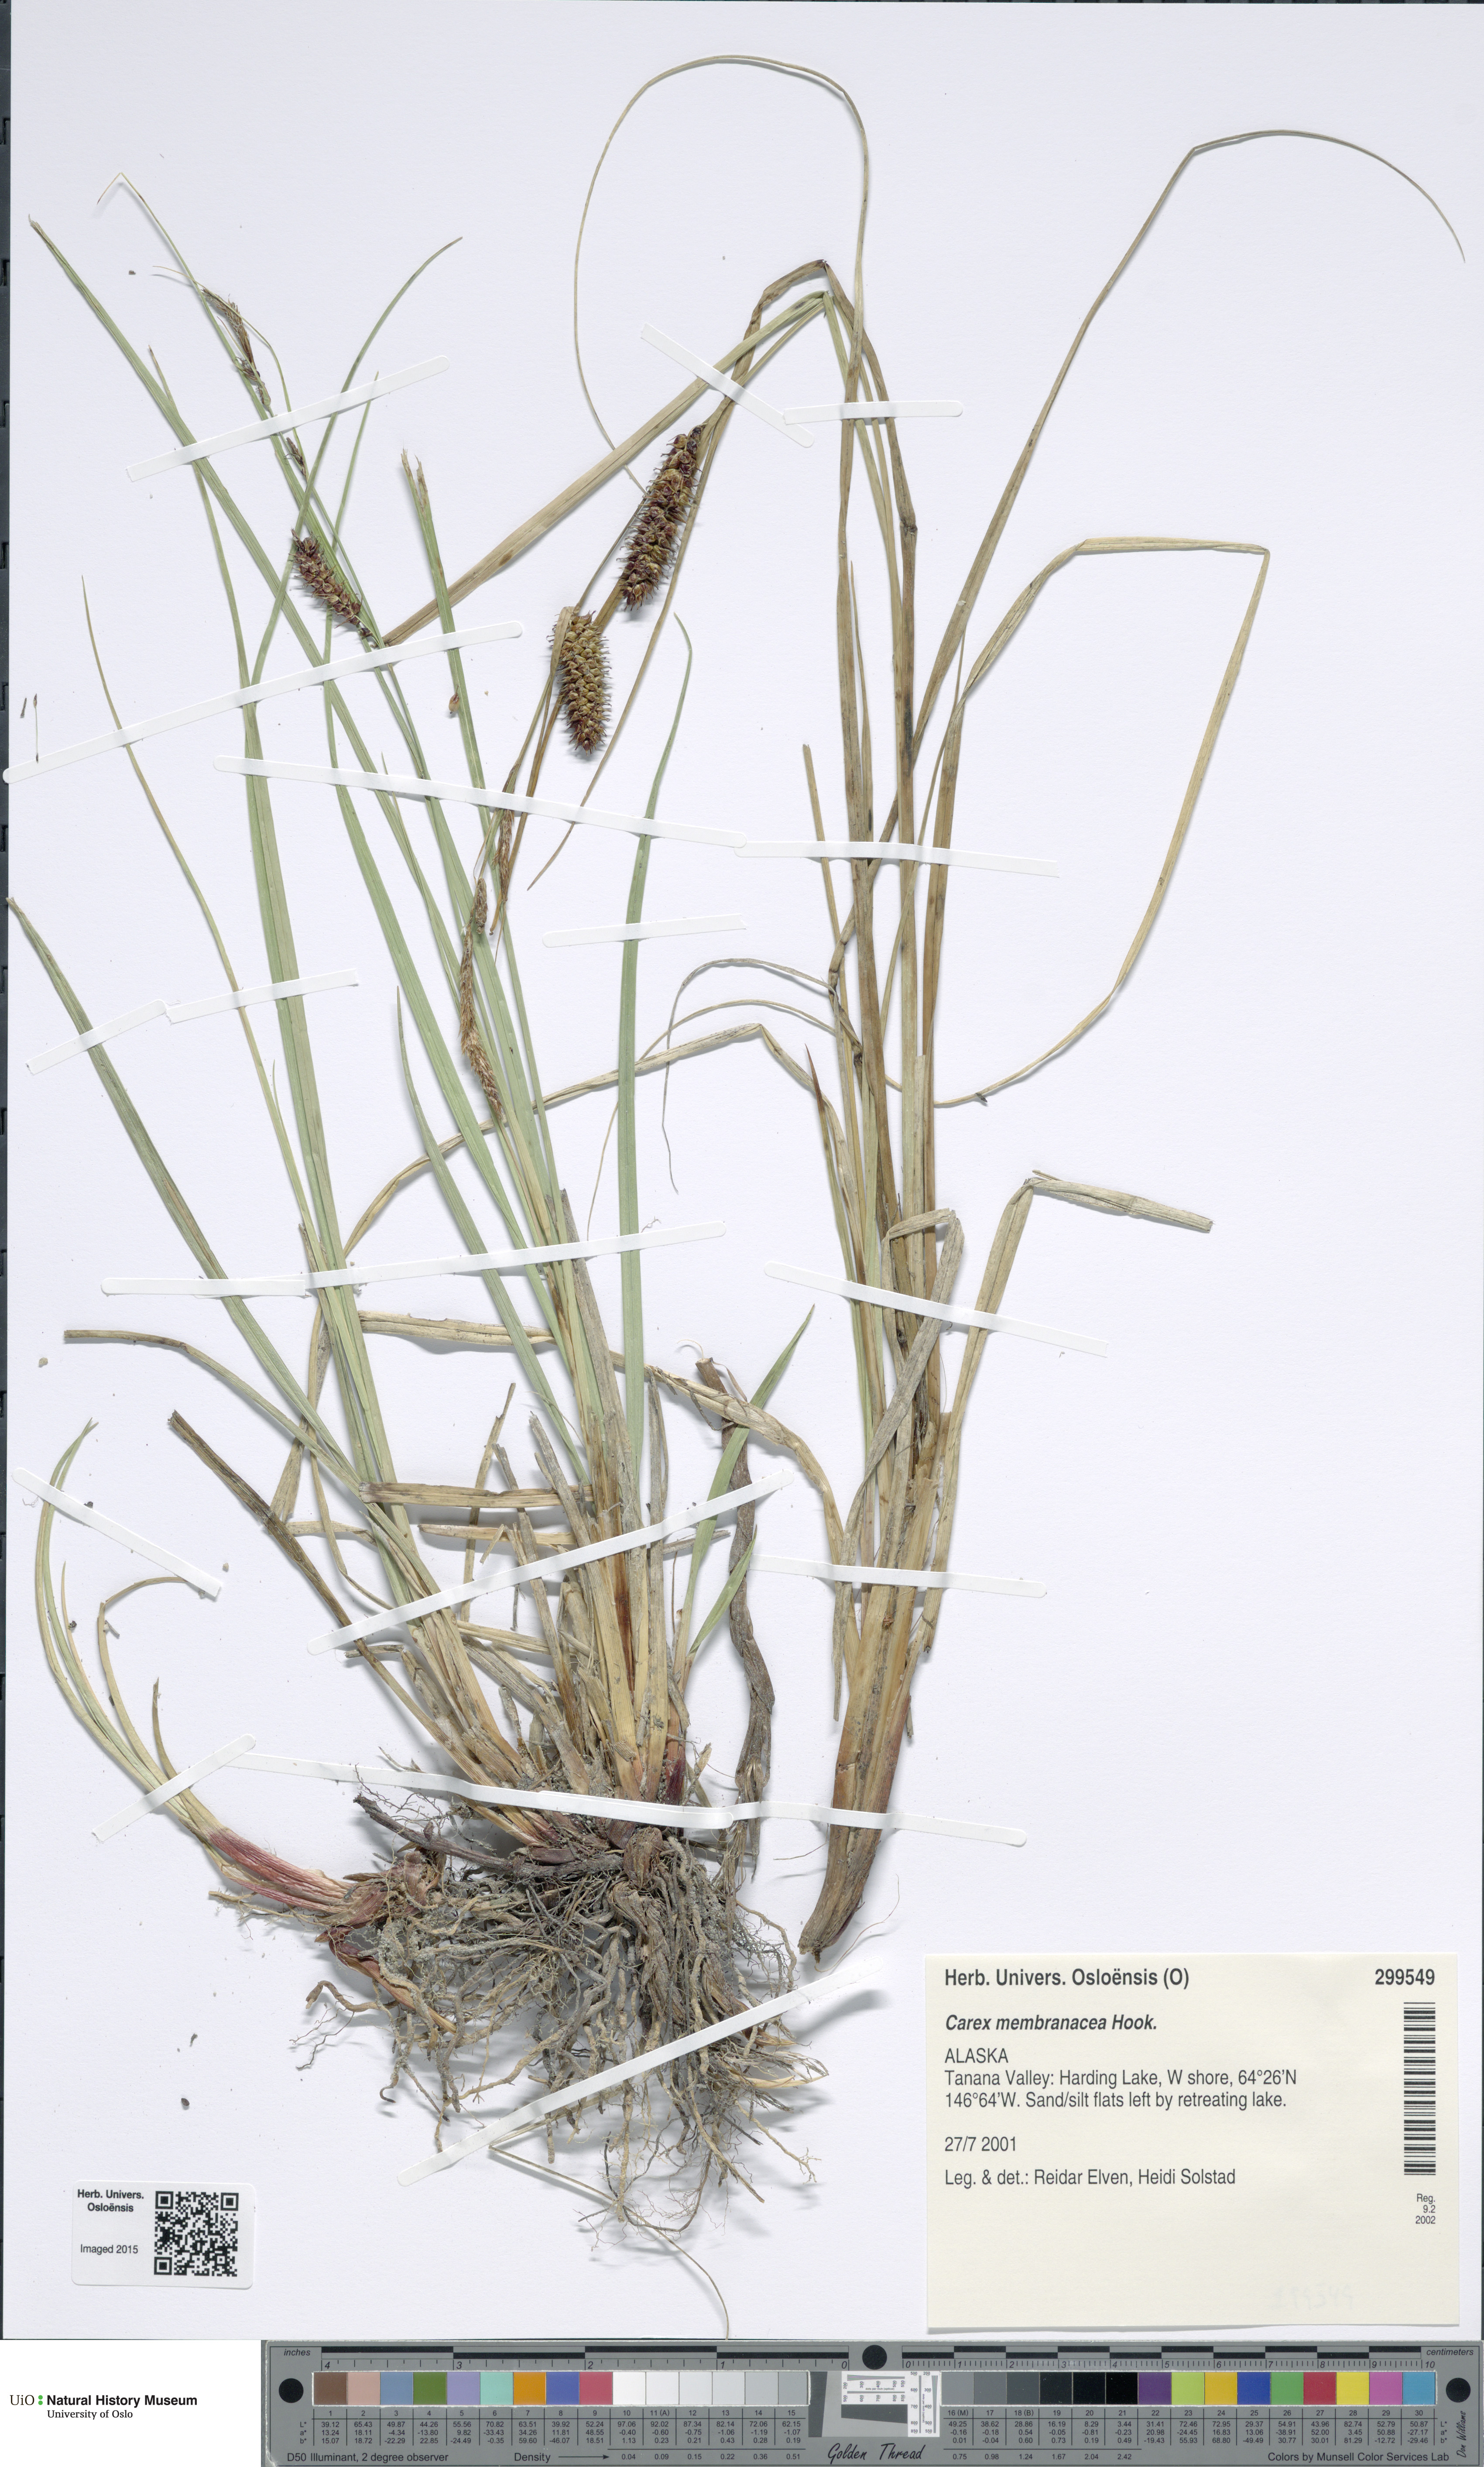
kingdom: Plantae
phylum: Tracheophyta
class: Liliopsida
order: Poales
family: Cyperaceae
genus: Carex
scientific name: Carex membranacea
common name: Fragile sedge
